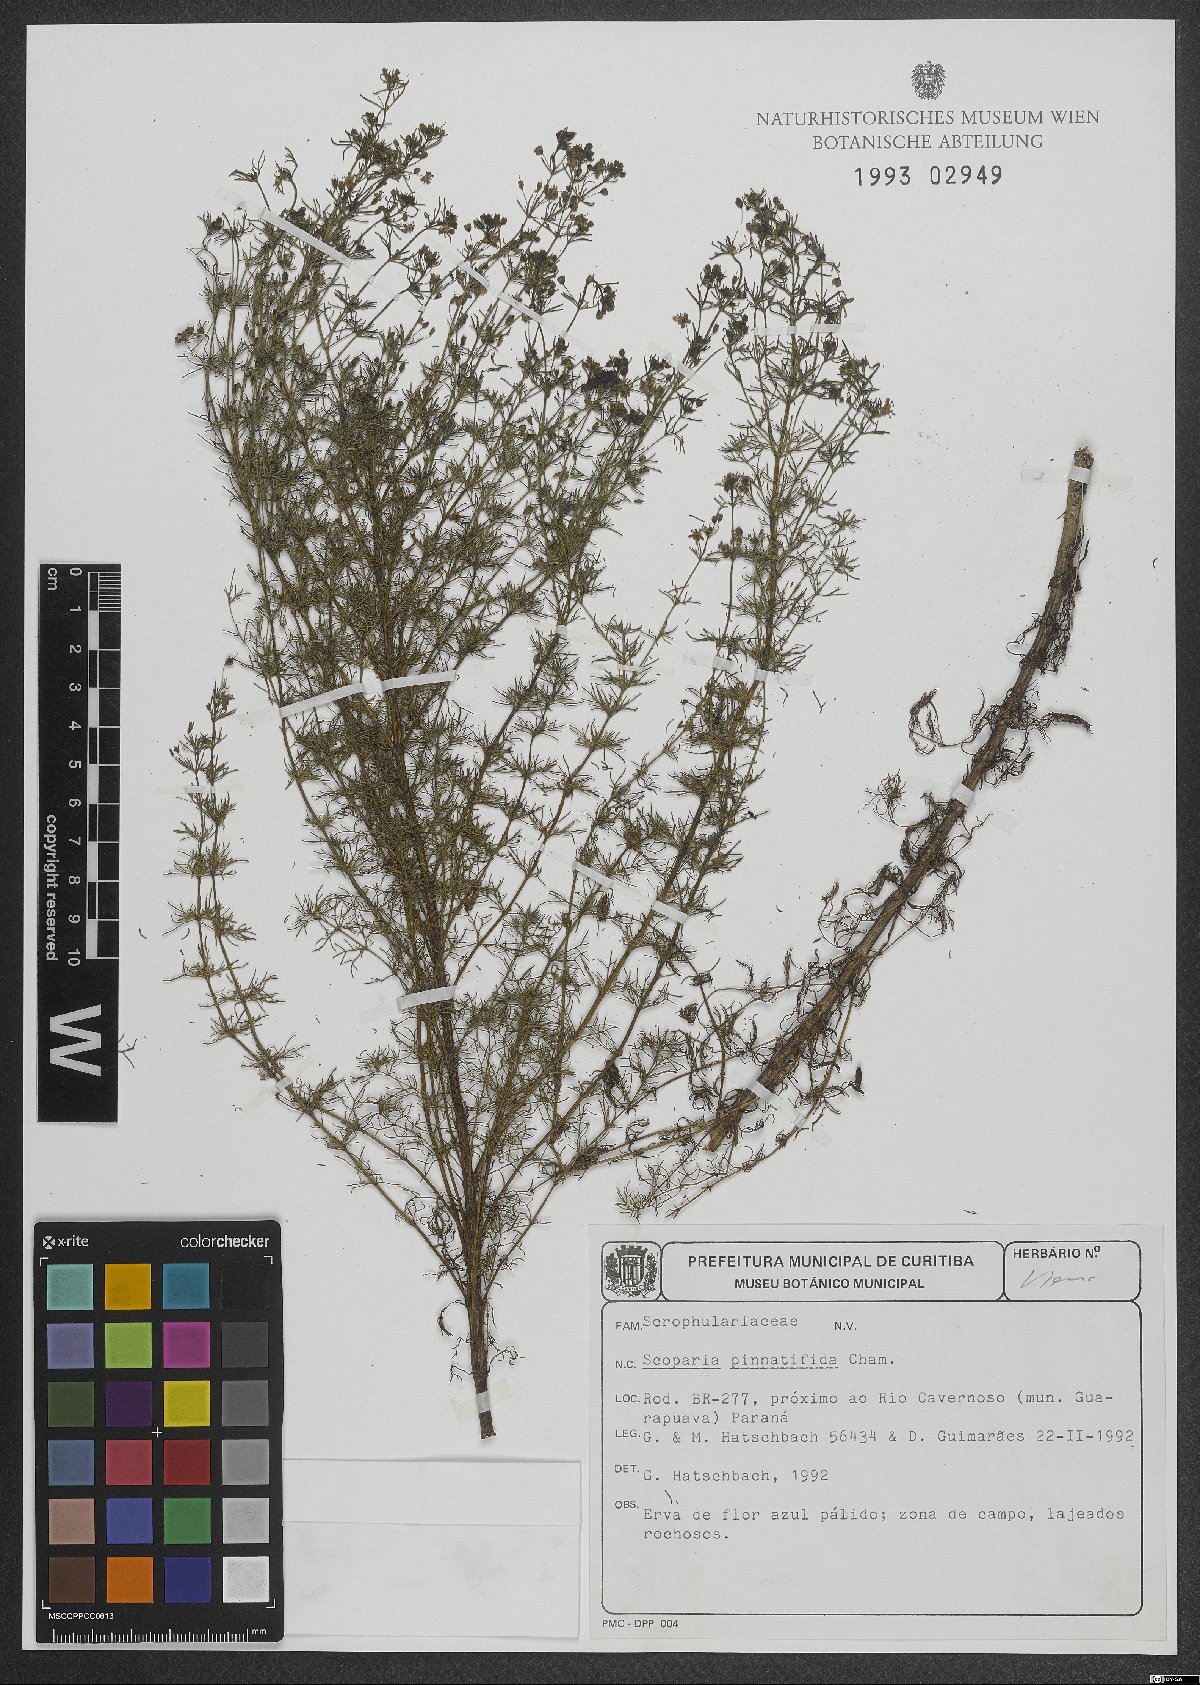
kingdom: Plantae
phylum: Tracheophyta
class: Magnoliopsida
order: Lamiales
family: Plantaginaceae
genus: Scoparia
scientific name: Scoparia pinnatifida
